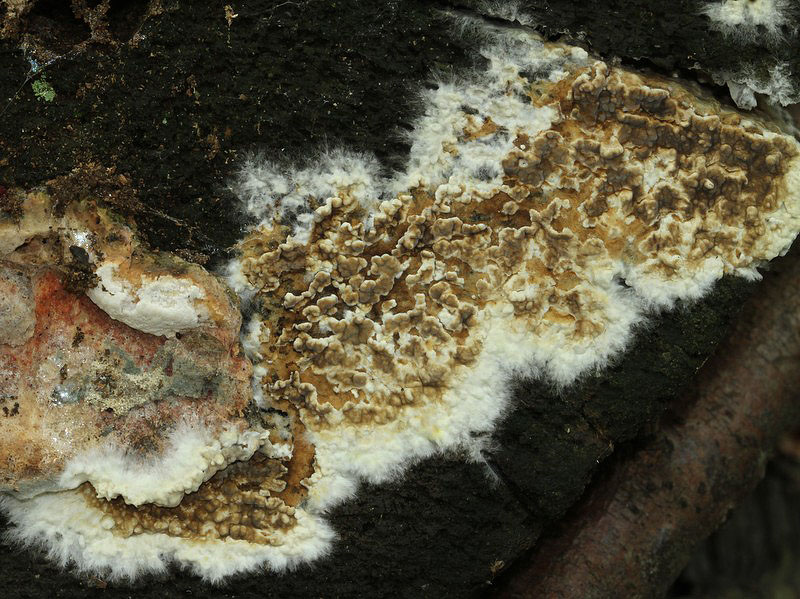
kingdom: Fungi
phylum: Basidiomycota
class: Agaricomycetes
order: Boletales
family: Coniophoraceae
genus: Coniophora
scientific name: Coniophora puteana
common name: gul tømmersvamp
